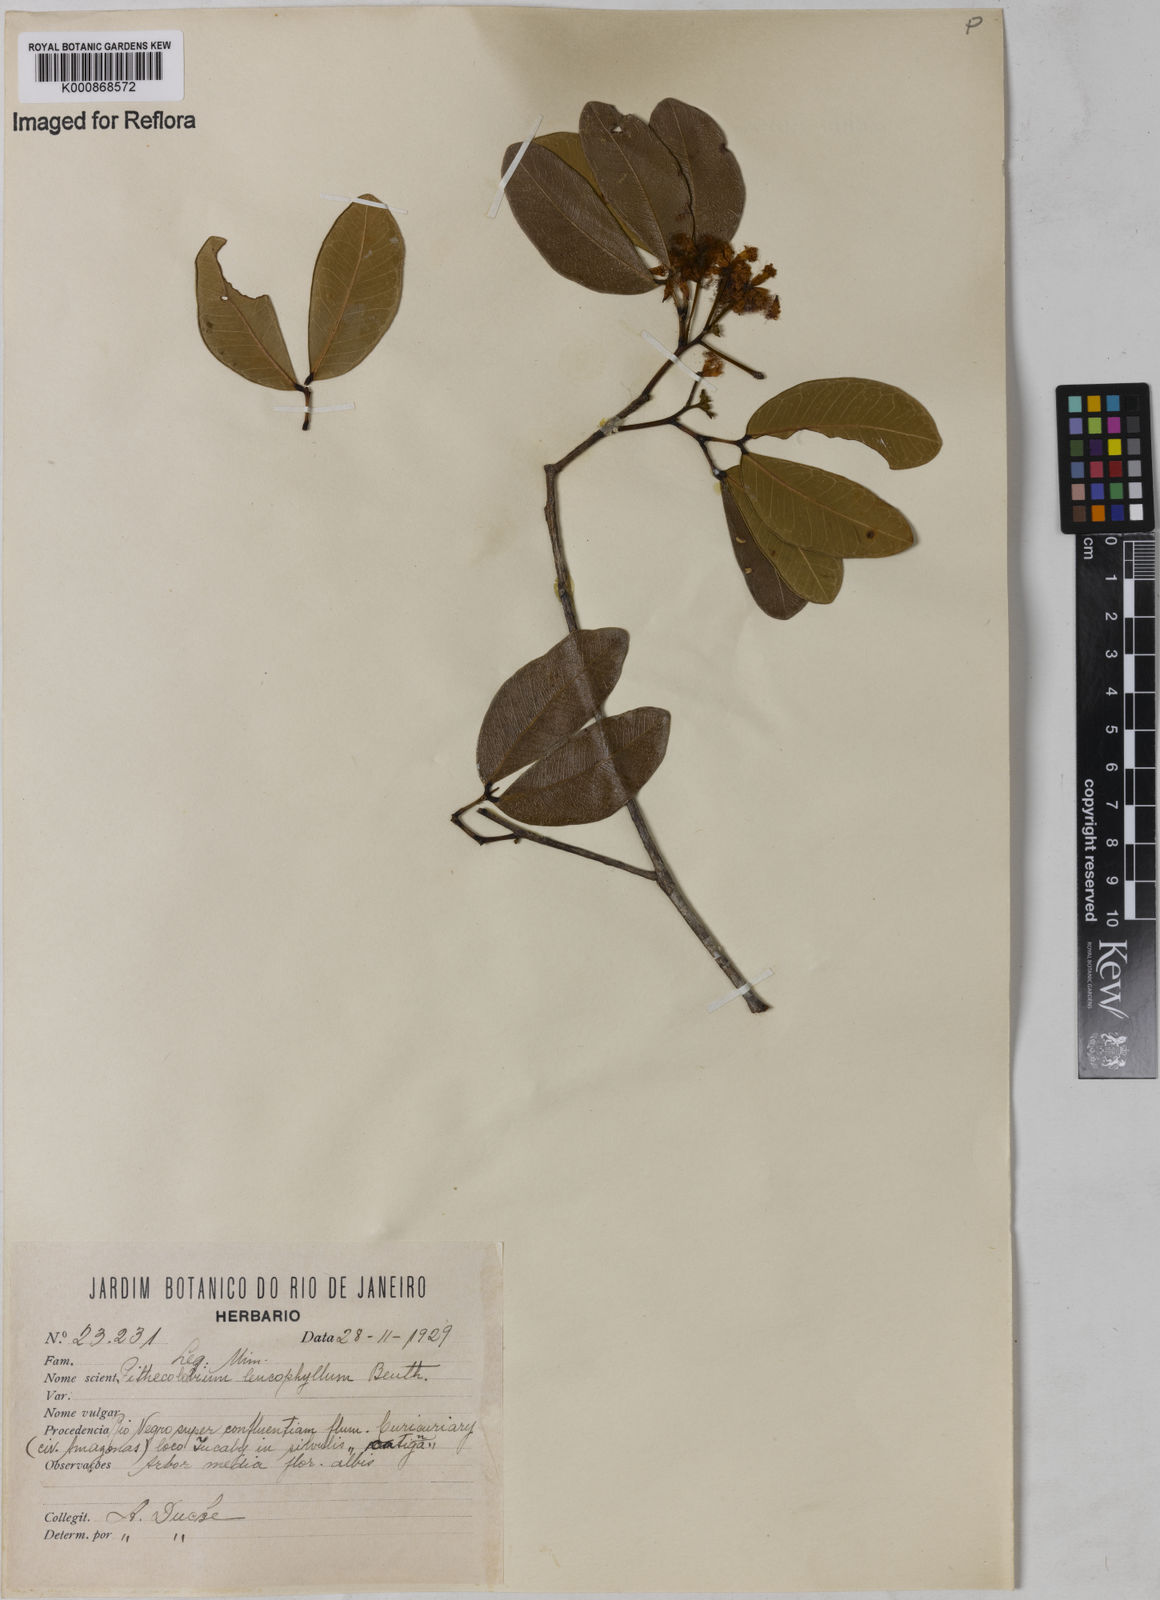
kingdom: Plantae
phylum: Tracheophyta
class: Magnoliopsida
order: Fabales
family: Fabaceae
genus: Jupunba
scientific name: Jupunba leucophylla
